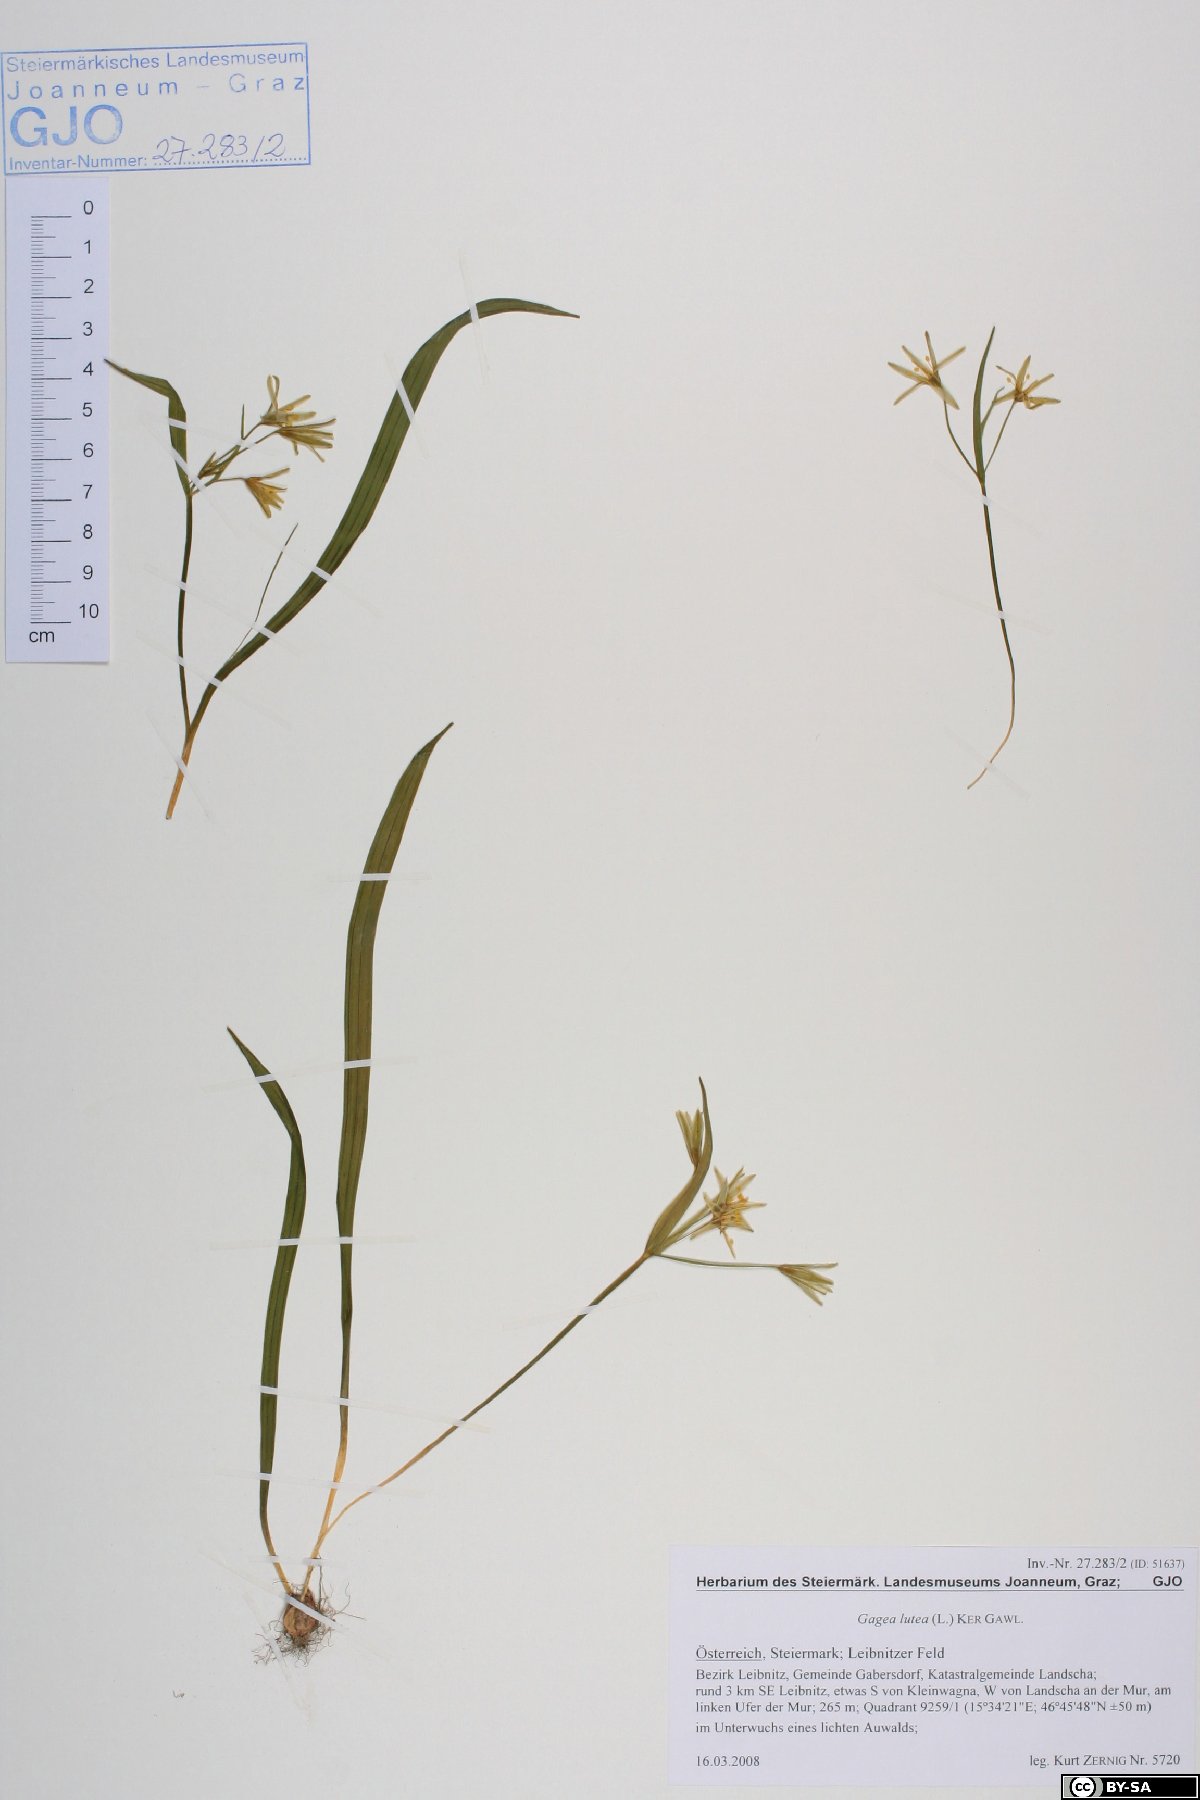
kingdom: Plantae
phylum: Tracheophyta
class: Liliopsida
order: Liliales
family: Liliaceae
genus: Gagea
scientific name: Gagea lutea
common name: Yellow star-of-bethlehem
